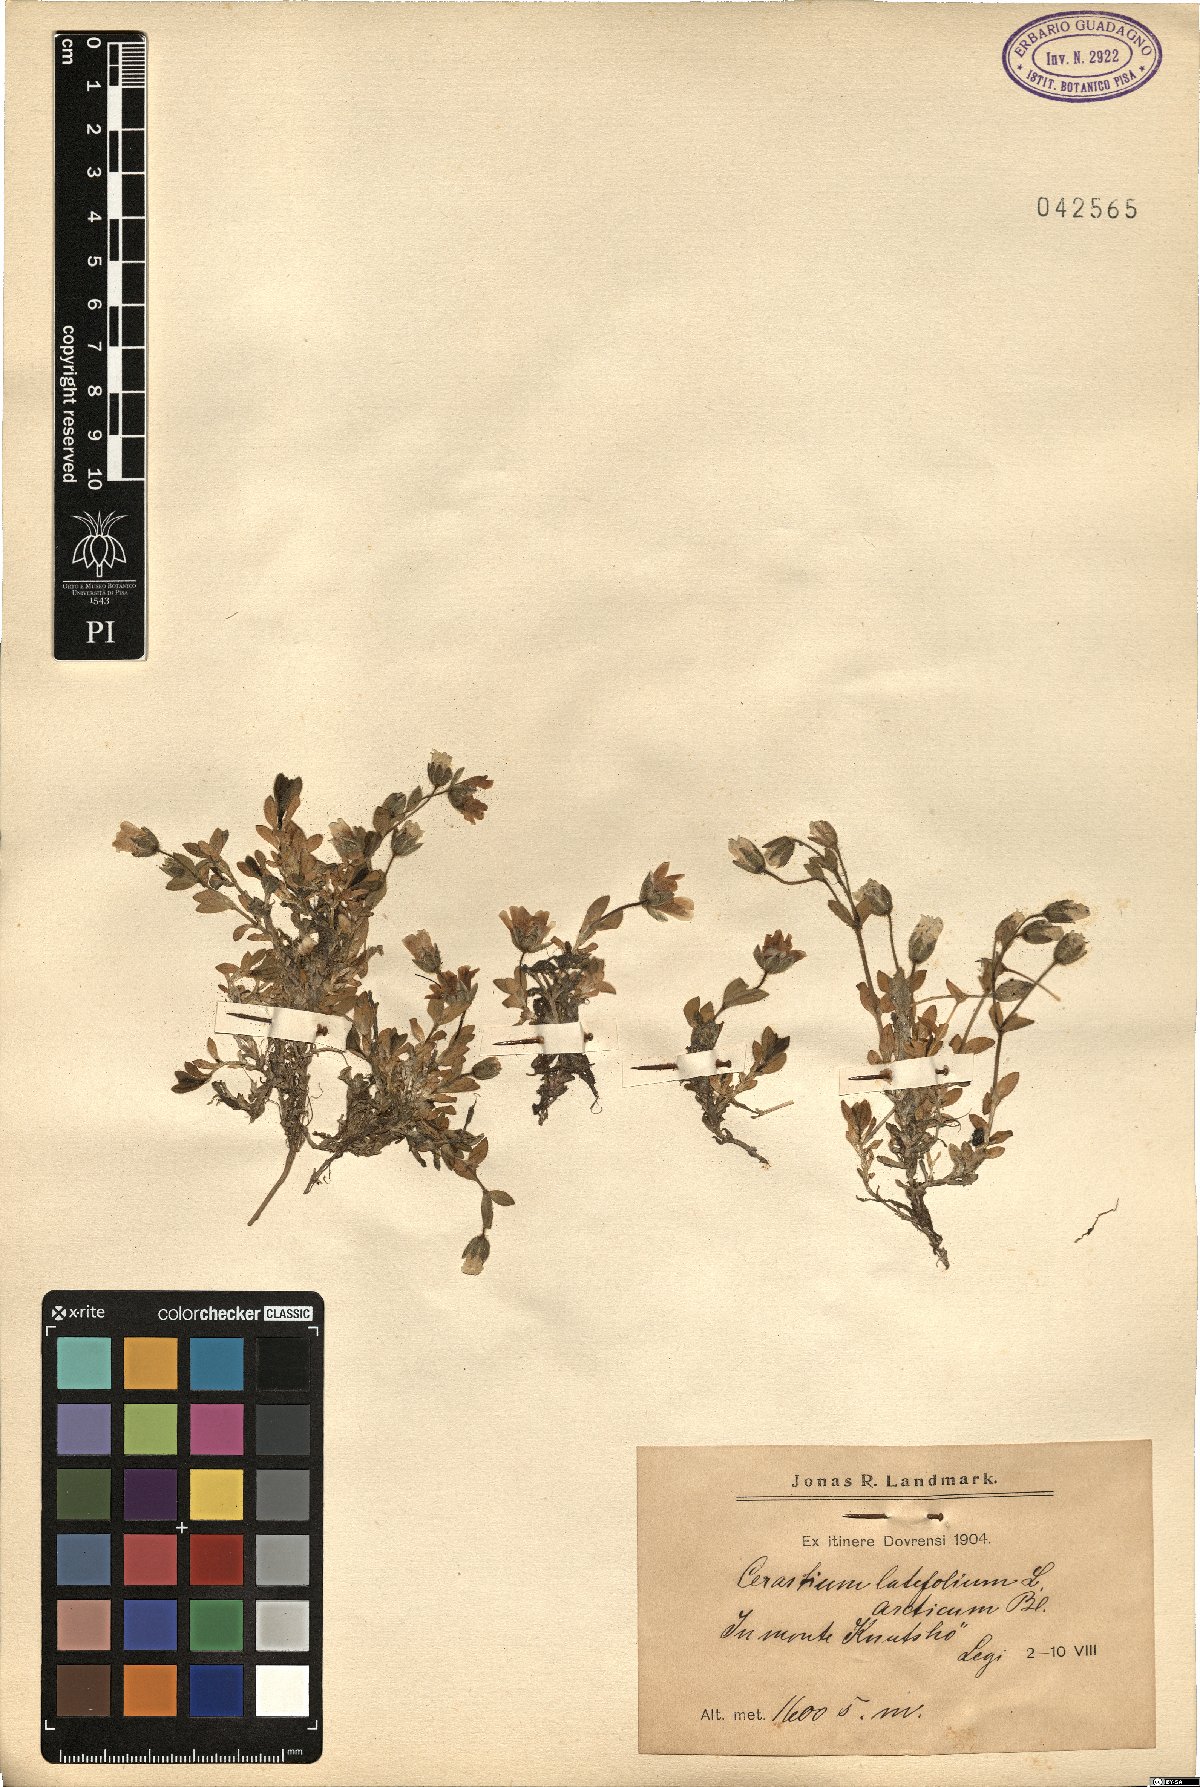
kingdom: Plantae
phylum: Tracheophyta
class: Magnoliopsida
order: Caryophyllales
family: Caryophyllaceae
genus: Cerastium
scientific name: Cerastium latifolium
